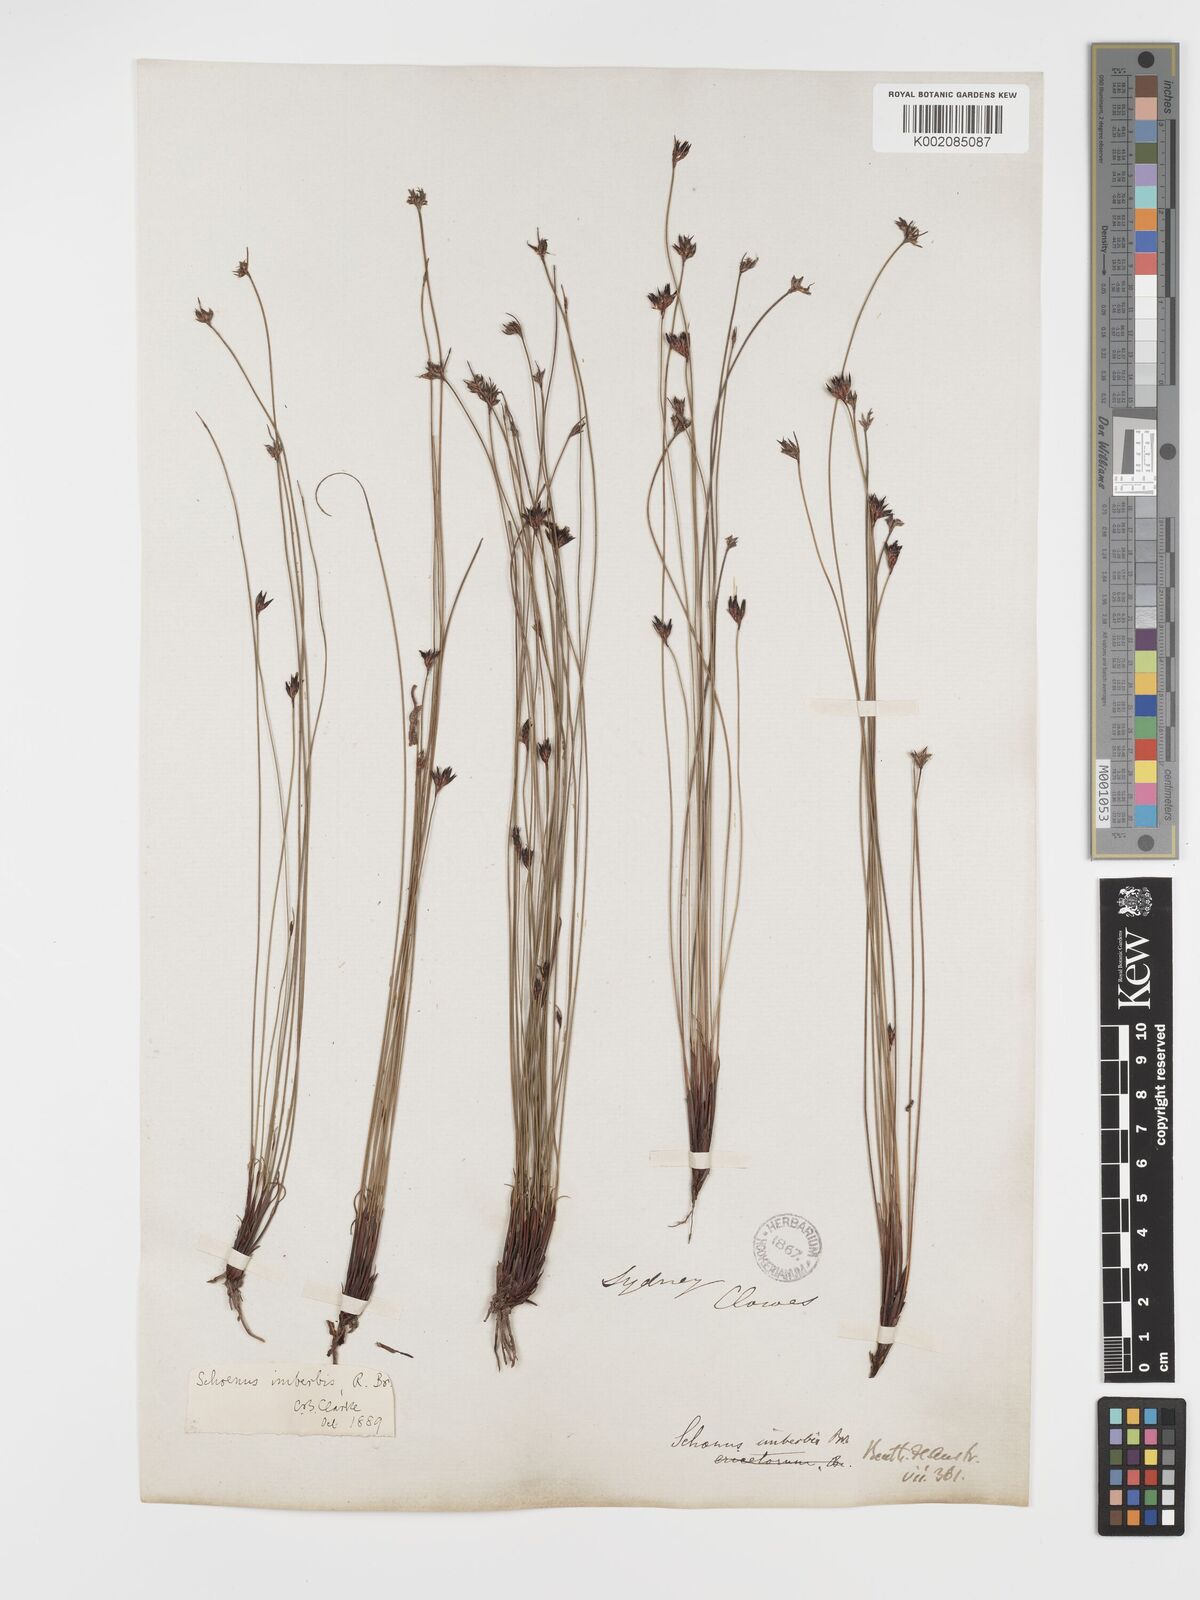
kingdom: Plantae
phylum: Tracheophyta
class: Liliopsida
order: Poales
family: Cyperaceae
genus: Schoenus
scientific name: Schoenus imberbis
